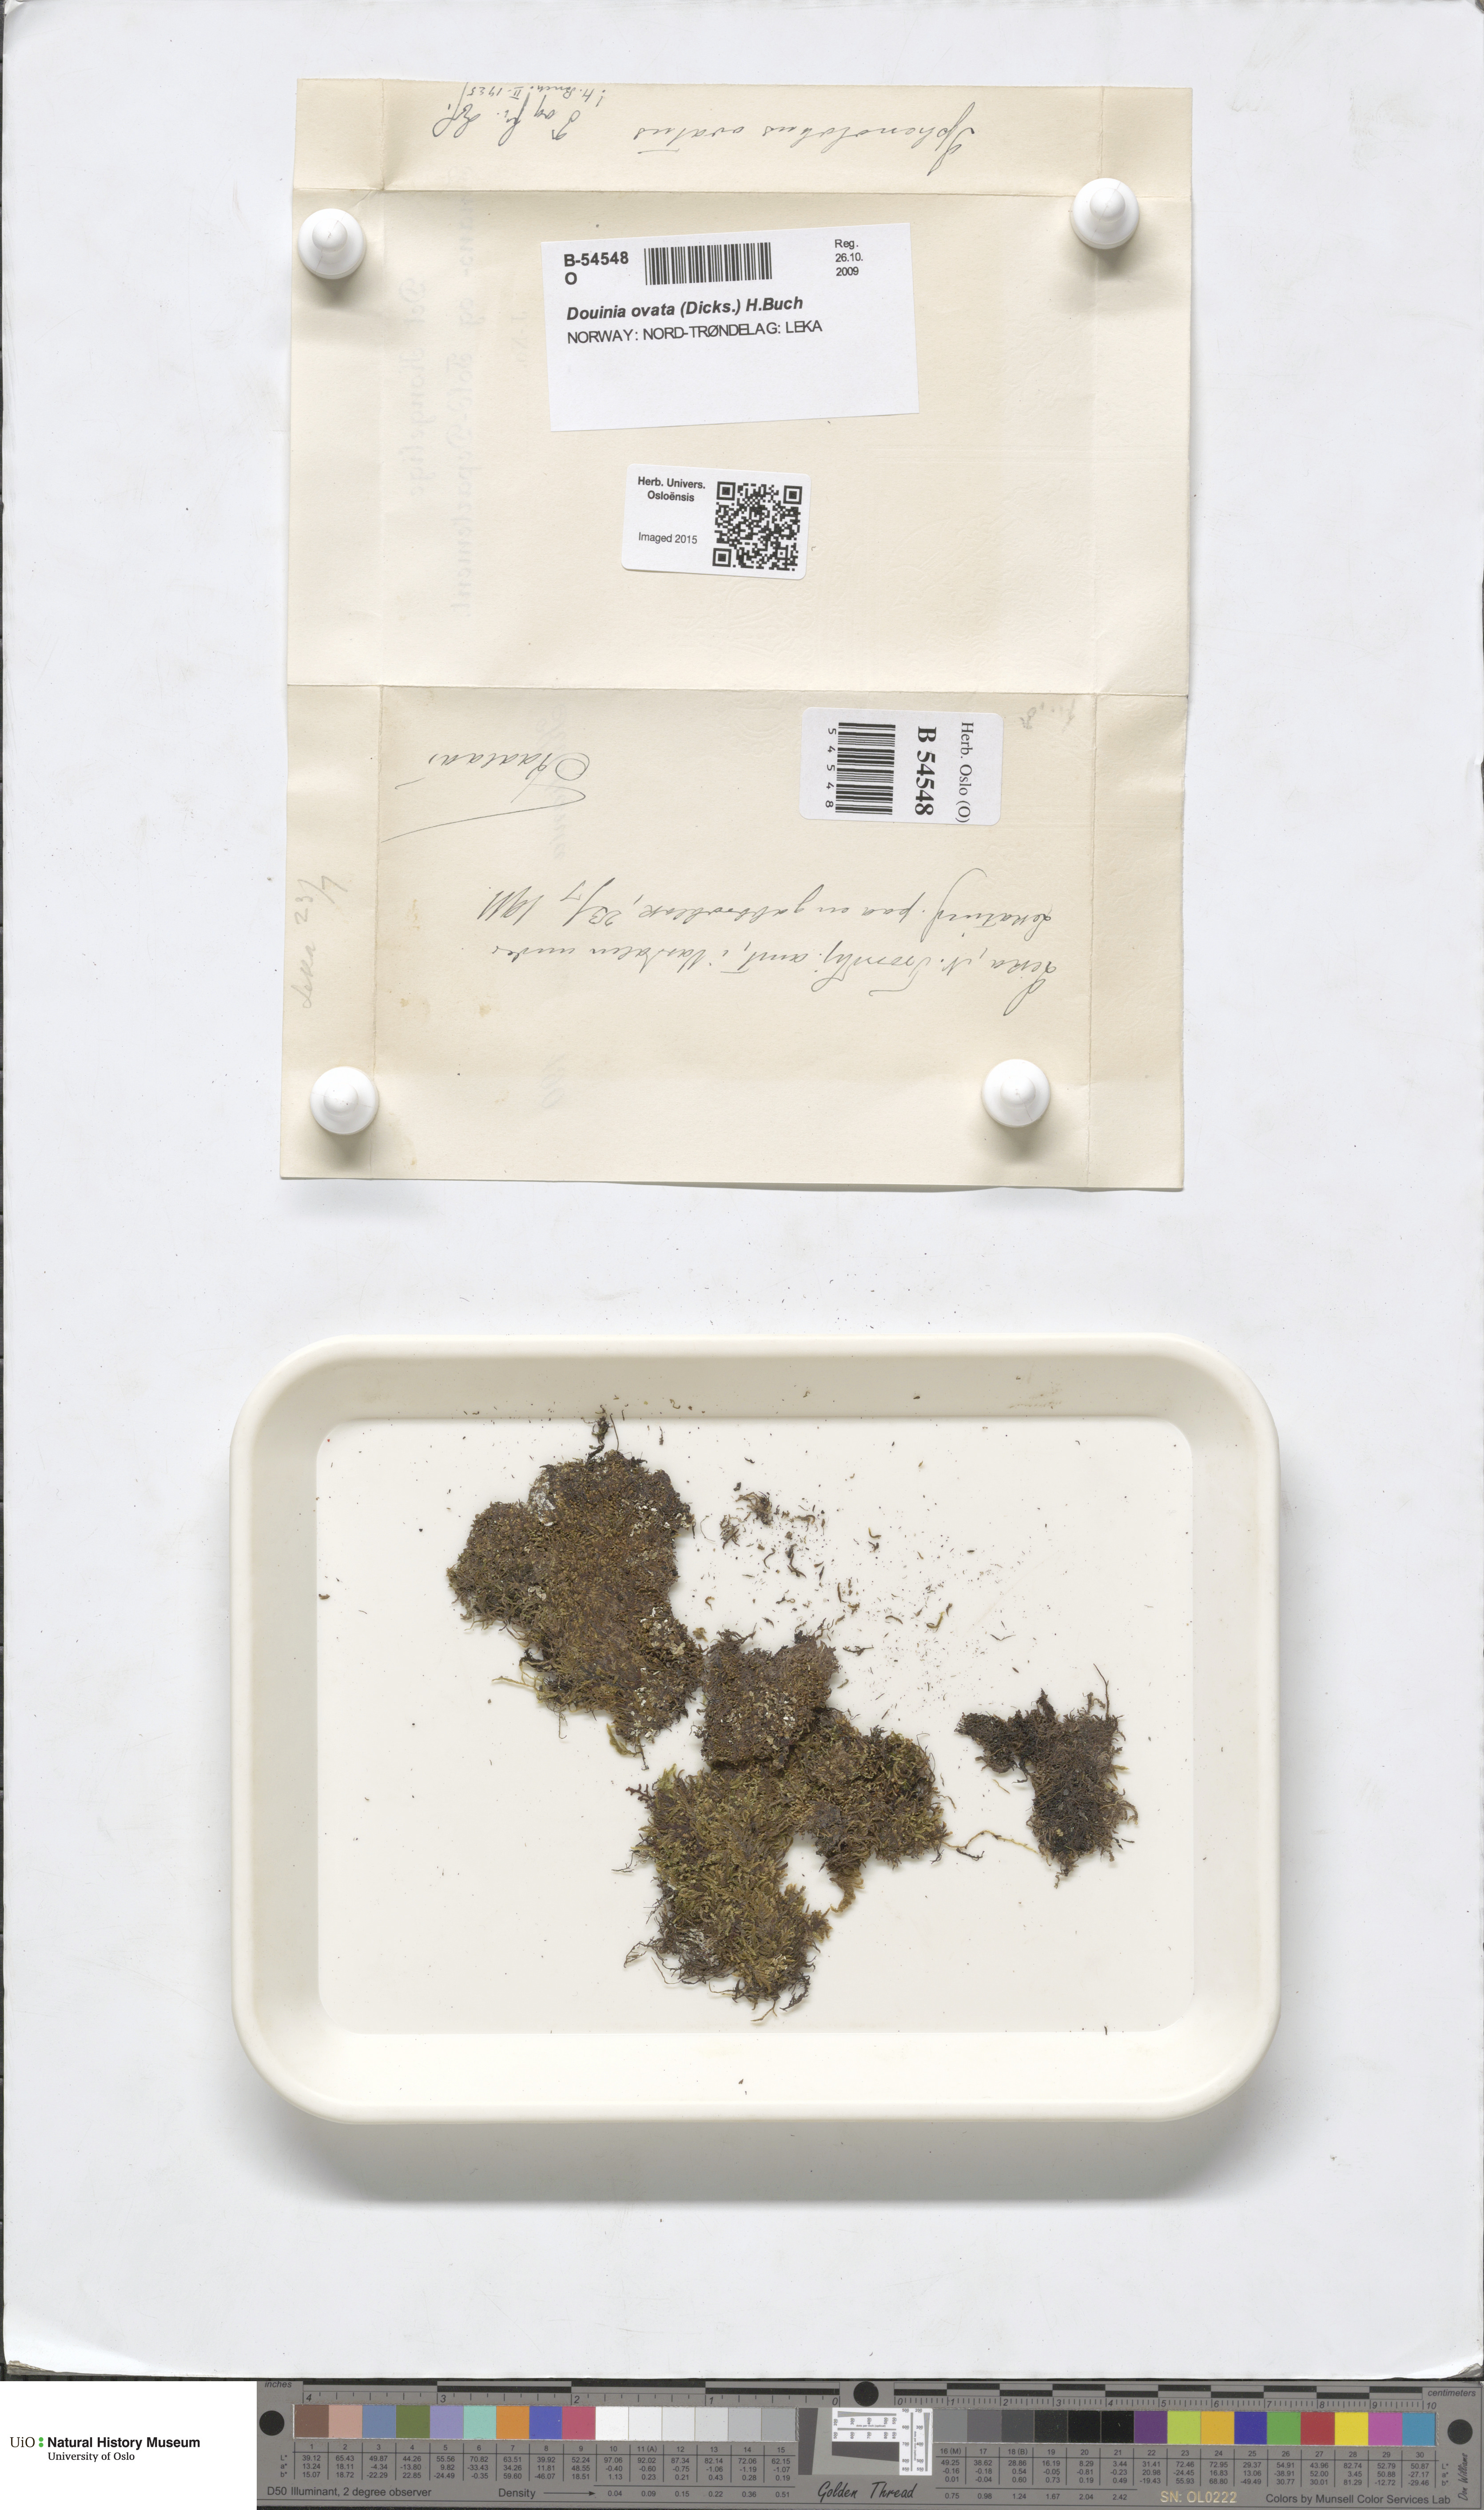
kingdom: Plantae
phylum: Marchantiophyta
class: Jungermanniopsida
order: Jungermanniales
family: Scapaniaceae
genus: Douinia
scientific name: Douinia ovata
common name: Waxy earwort
